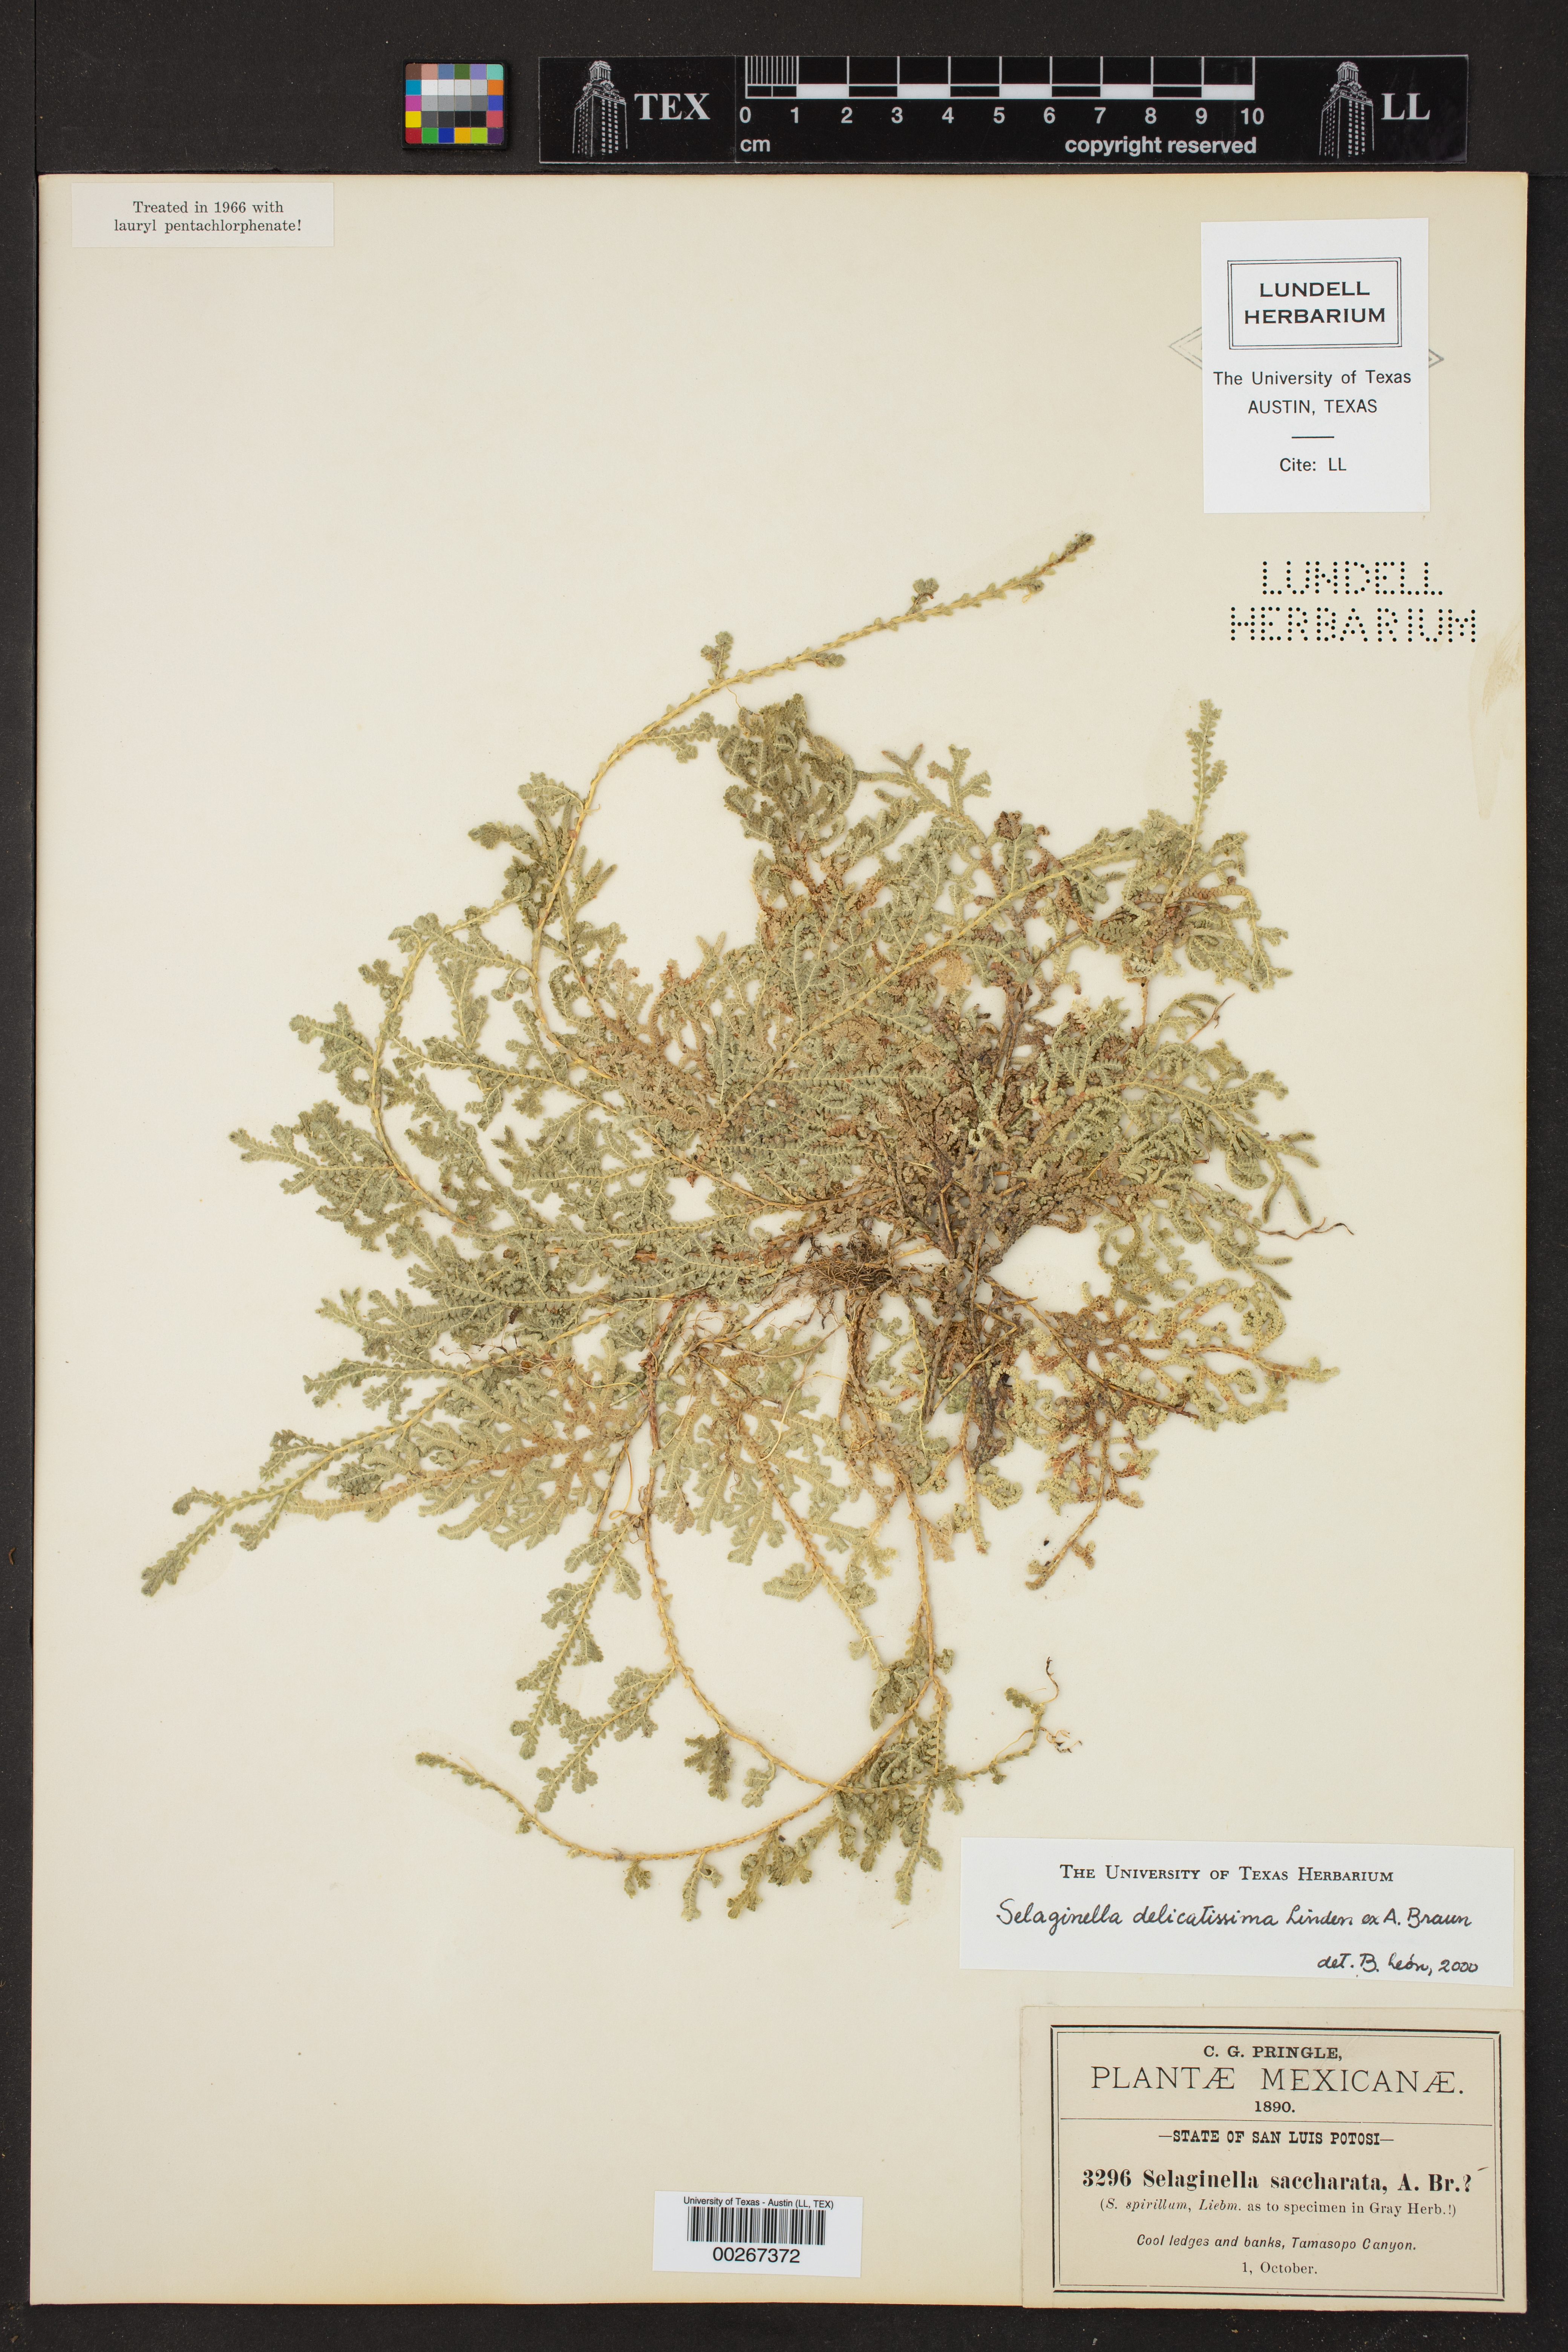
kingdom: Plantae
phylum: Tracheophyta
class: Lycopodiopsida
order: Selaginellales
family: Selaginellaceae
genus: Selaginella
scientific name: Selaginella delicatissima
